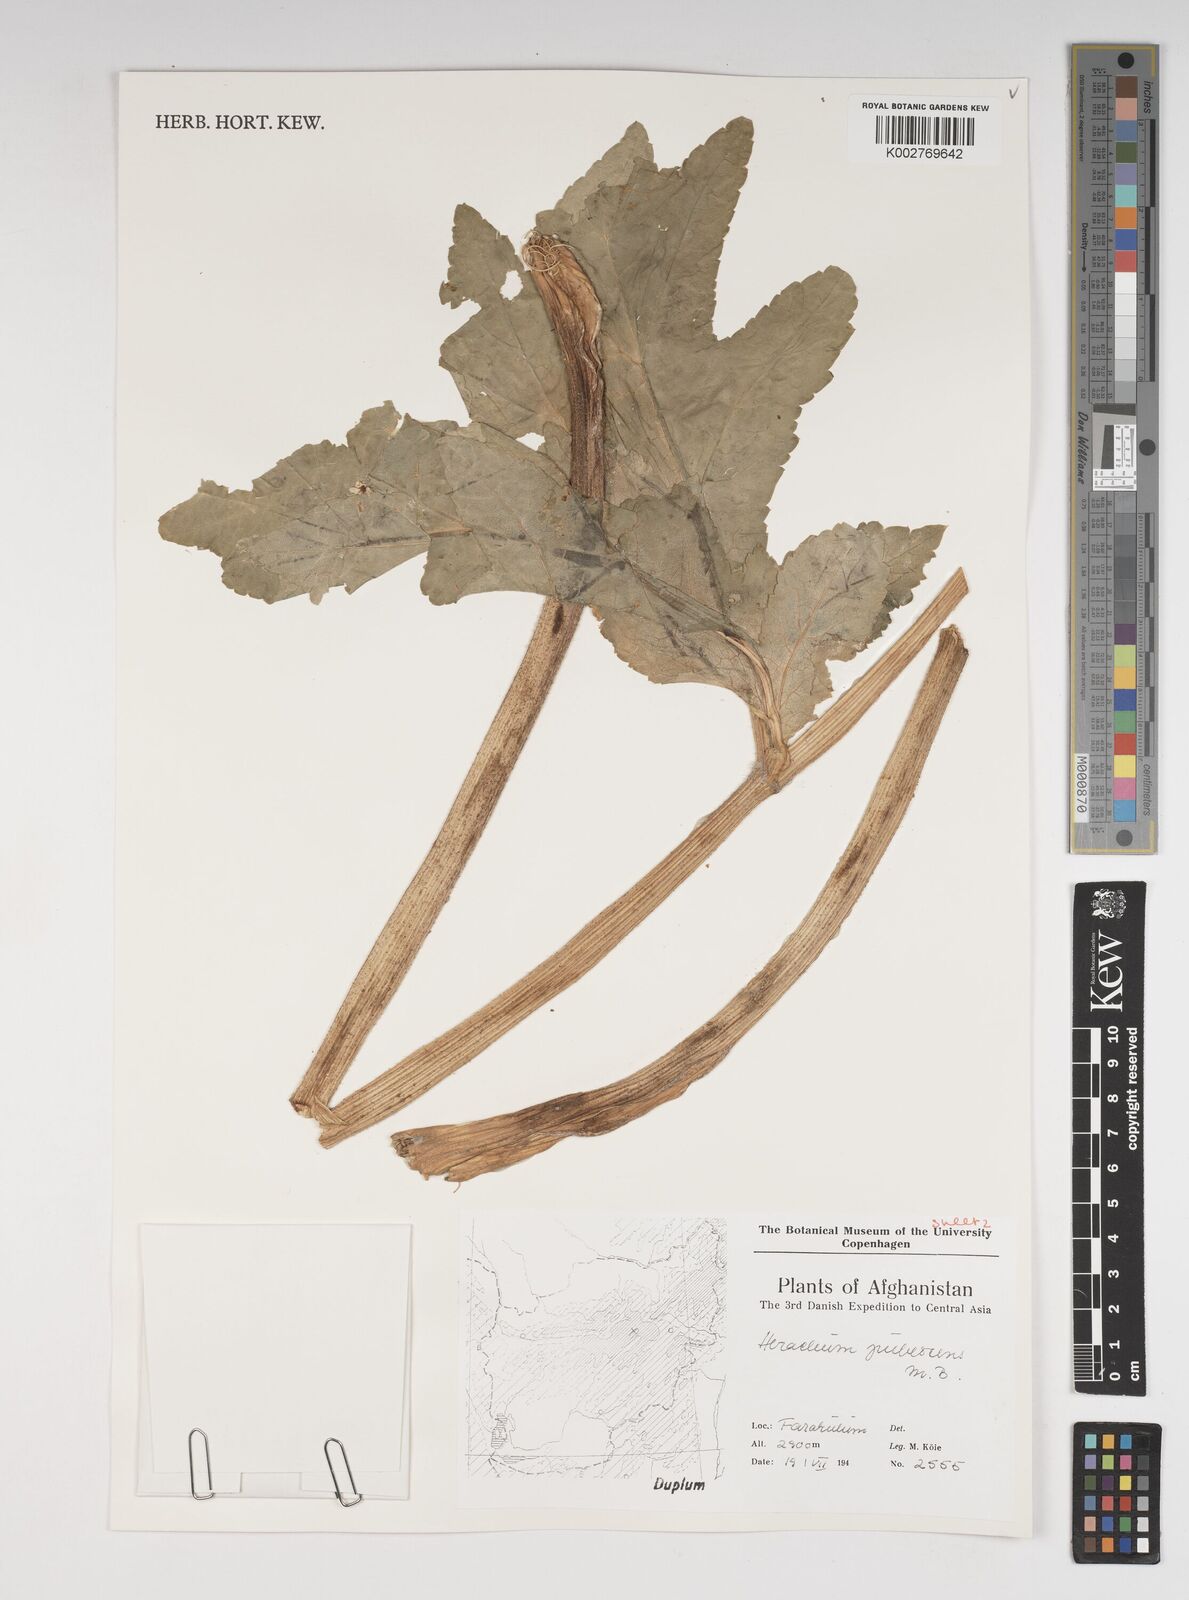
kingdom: Plantae
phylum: Tracheophyta
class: Magnoliopsida
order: Apiales
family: Apiaceae
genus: Heracleum
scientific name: Heracleum
